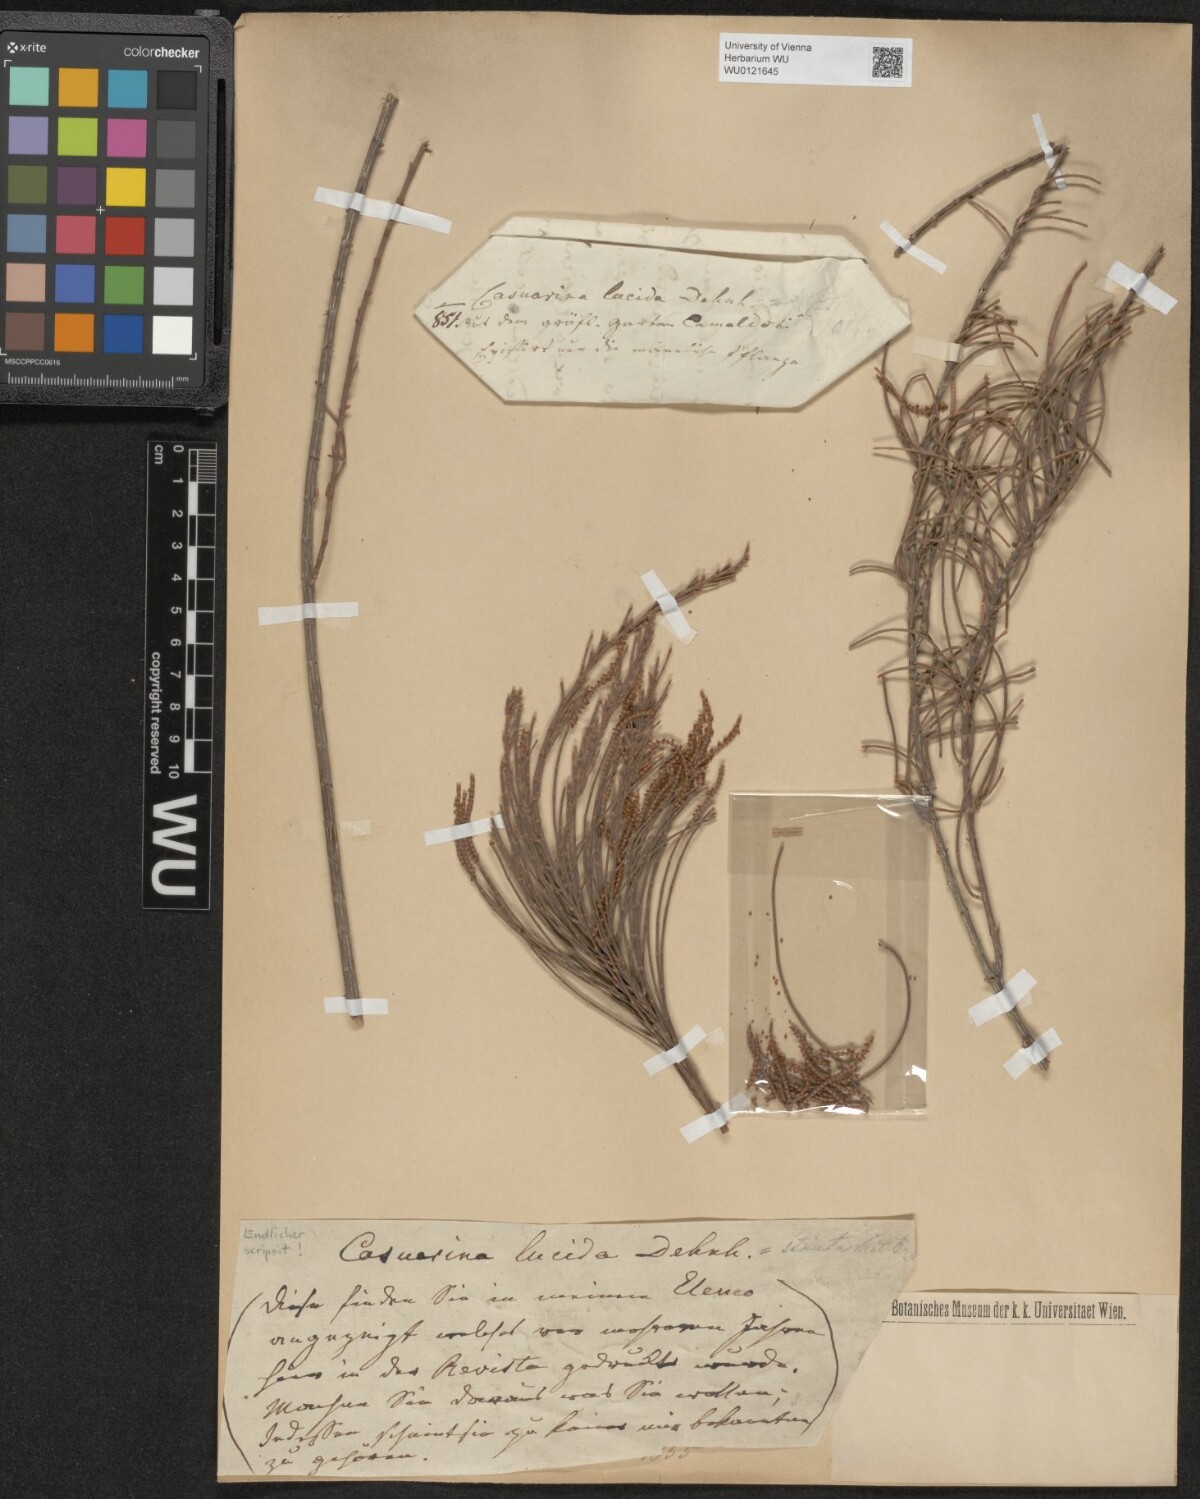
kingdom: Plantae
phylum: Tracheophyta
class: Magnoliopsida
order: Fagales
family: Casuarinaceae
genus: Casuarina
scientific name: Casuarina lucida
